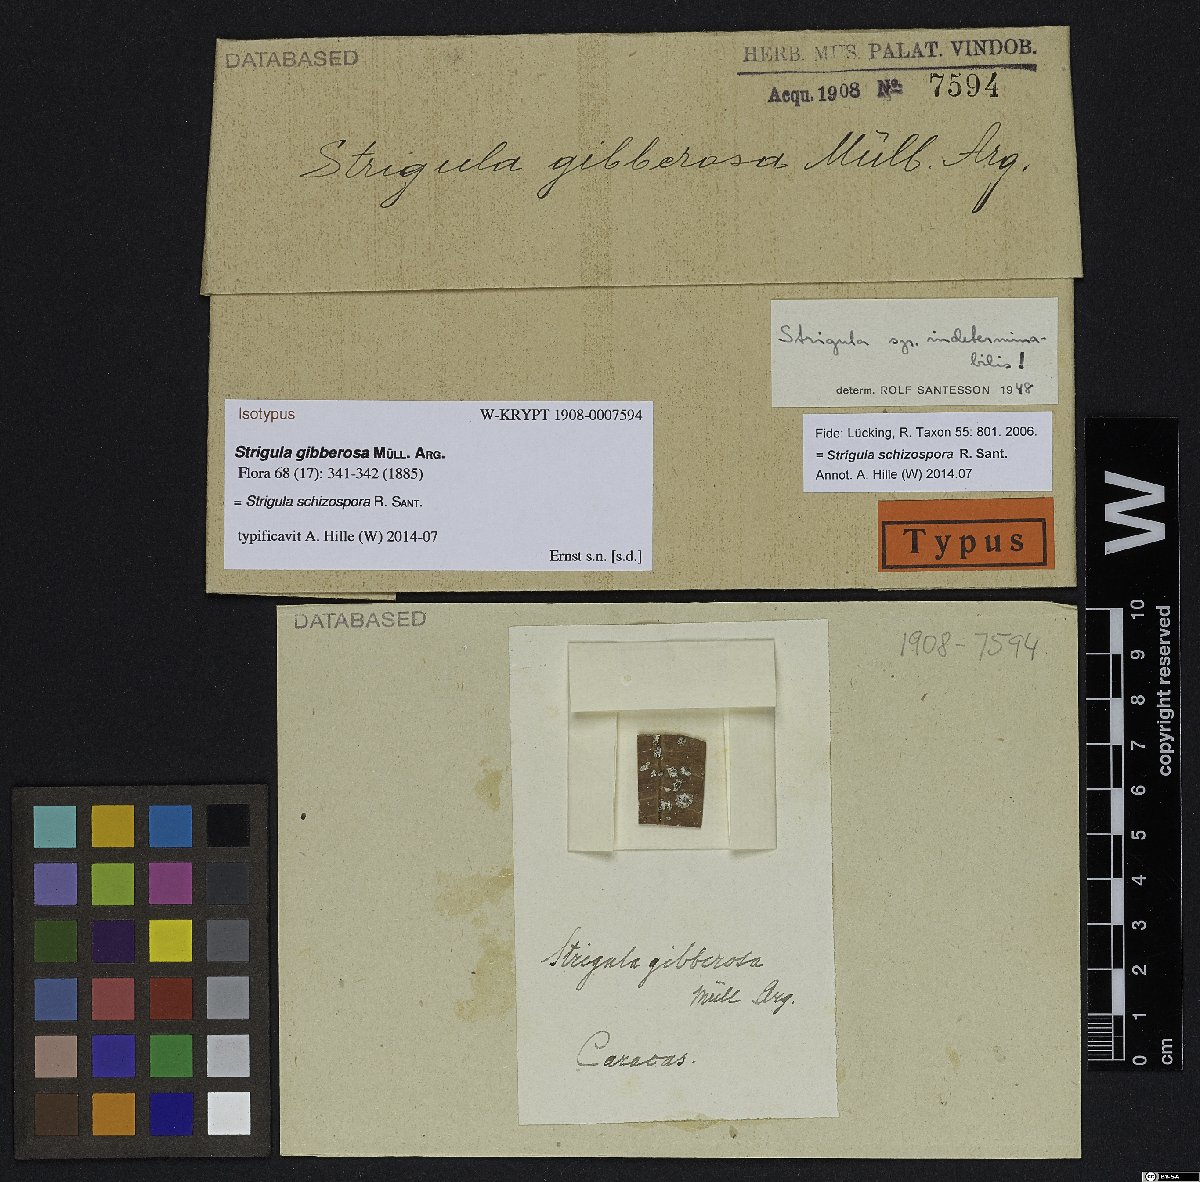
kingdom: Fungi
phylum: Ascomycota
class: Dothideomycetes
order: Strigulales
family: Strigulaceae
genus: Strigula
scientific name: Strigula
